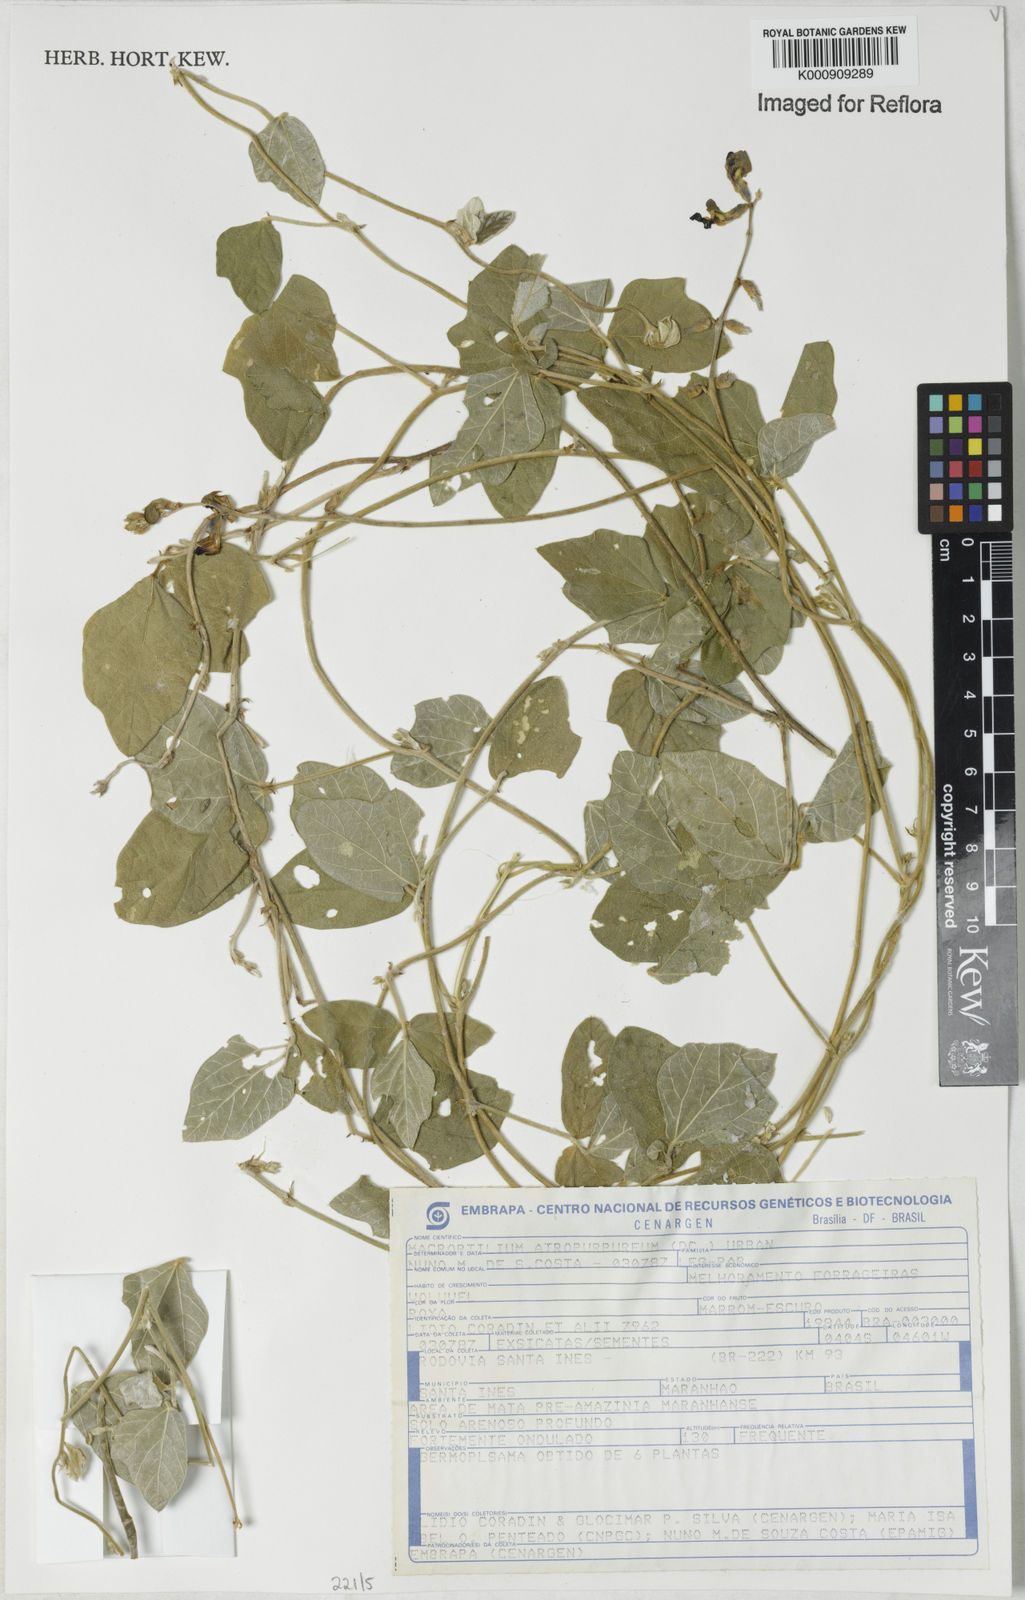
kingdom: Plantae
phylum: Tracheophyta
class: Magnoliopsida
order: Fabales
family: Fabaceae
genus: Macroptilium
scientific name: Macroptilium atropurpureum
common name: Purple bushbean
